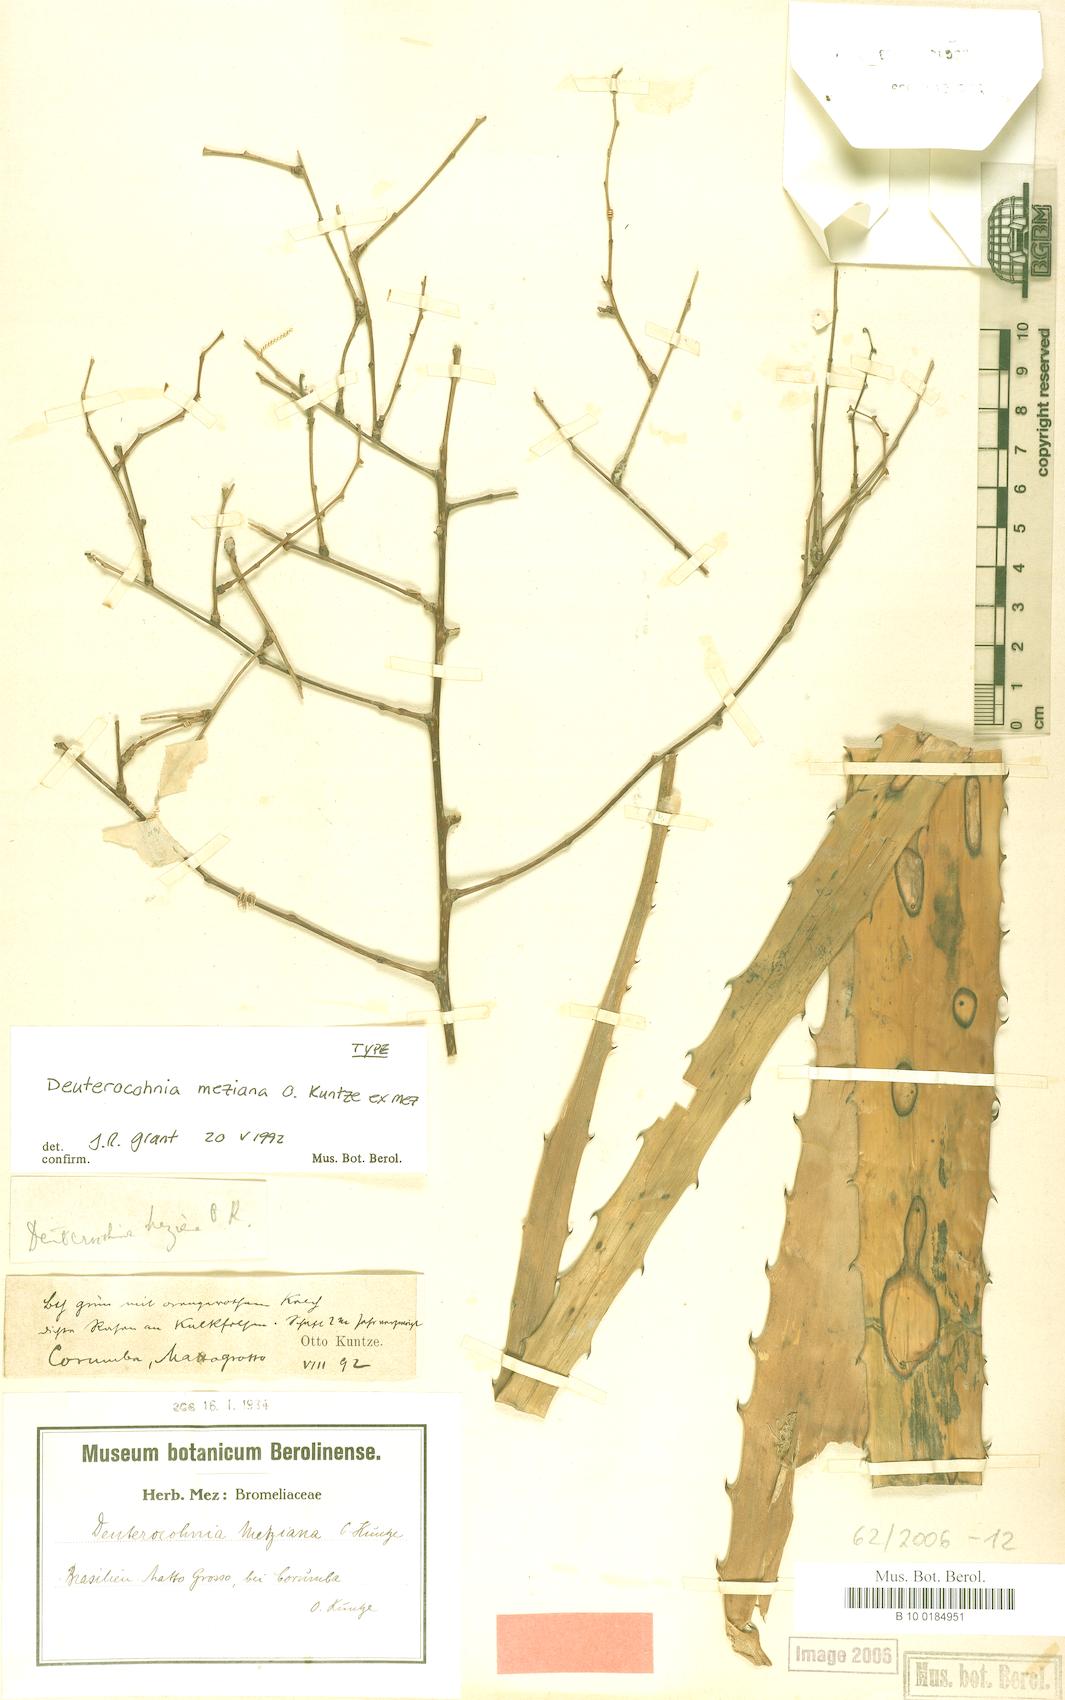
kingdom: Plantae
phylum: Tracheophyta
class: Liliopsida
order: Poales
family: Bromeliaceae
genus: Deuterocohnia
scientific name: Deuterocohnia meziana
